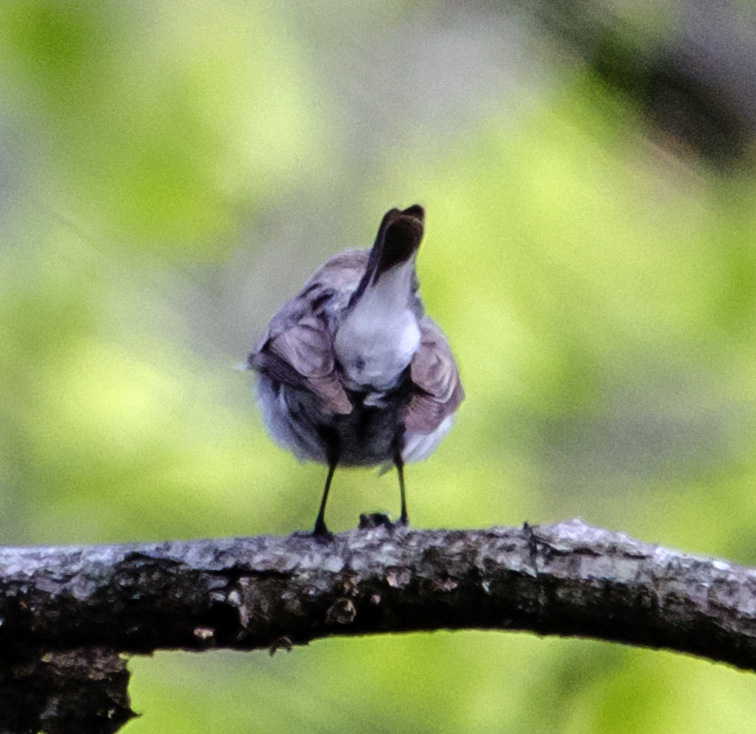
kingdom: Animalia
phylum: Chordata
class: Aves
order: Passeriformes
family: Muscicapidae
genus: Ficedula
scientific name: Ficedula parva
